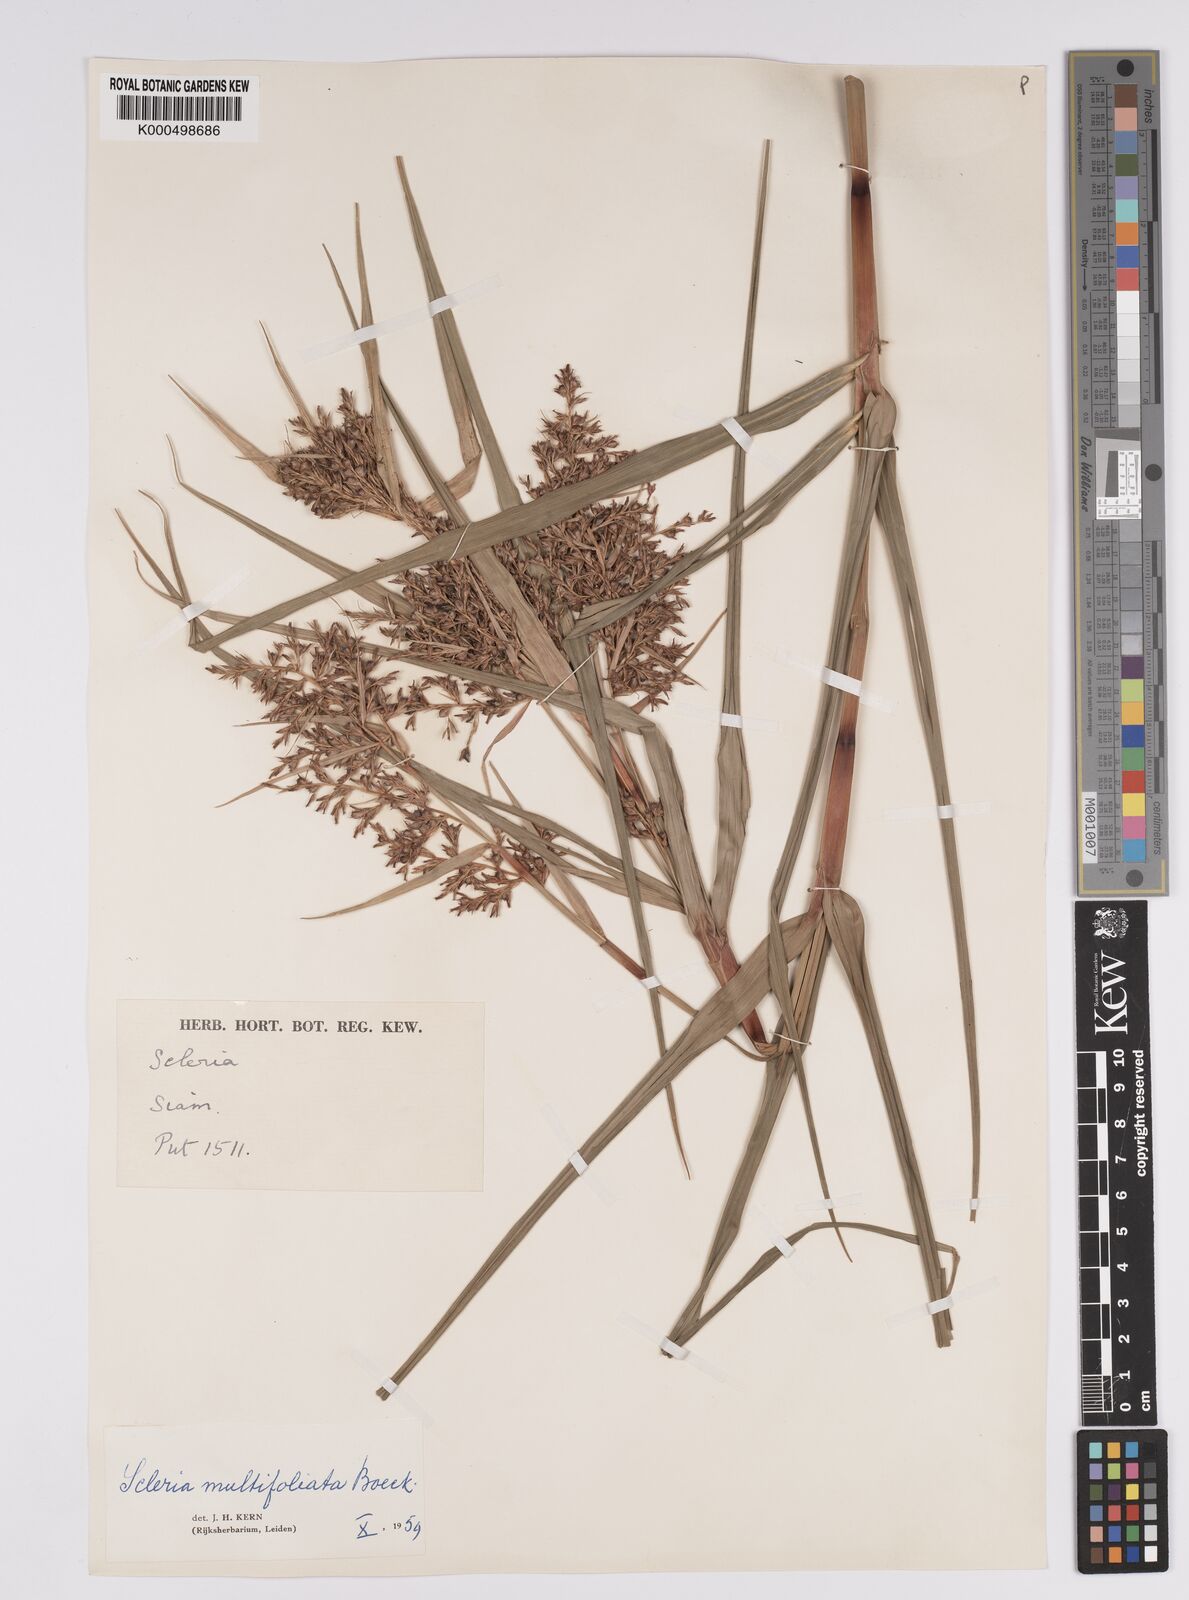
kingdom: Plantae
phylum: Tracheophyta
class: Liliopsida
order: Poales
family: Cyperaceae
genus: Scleria
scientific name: Scleria purpurascens
